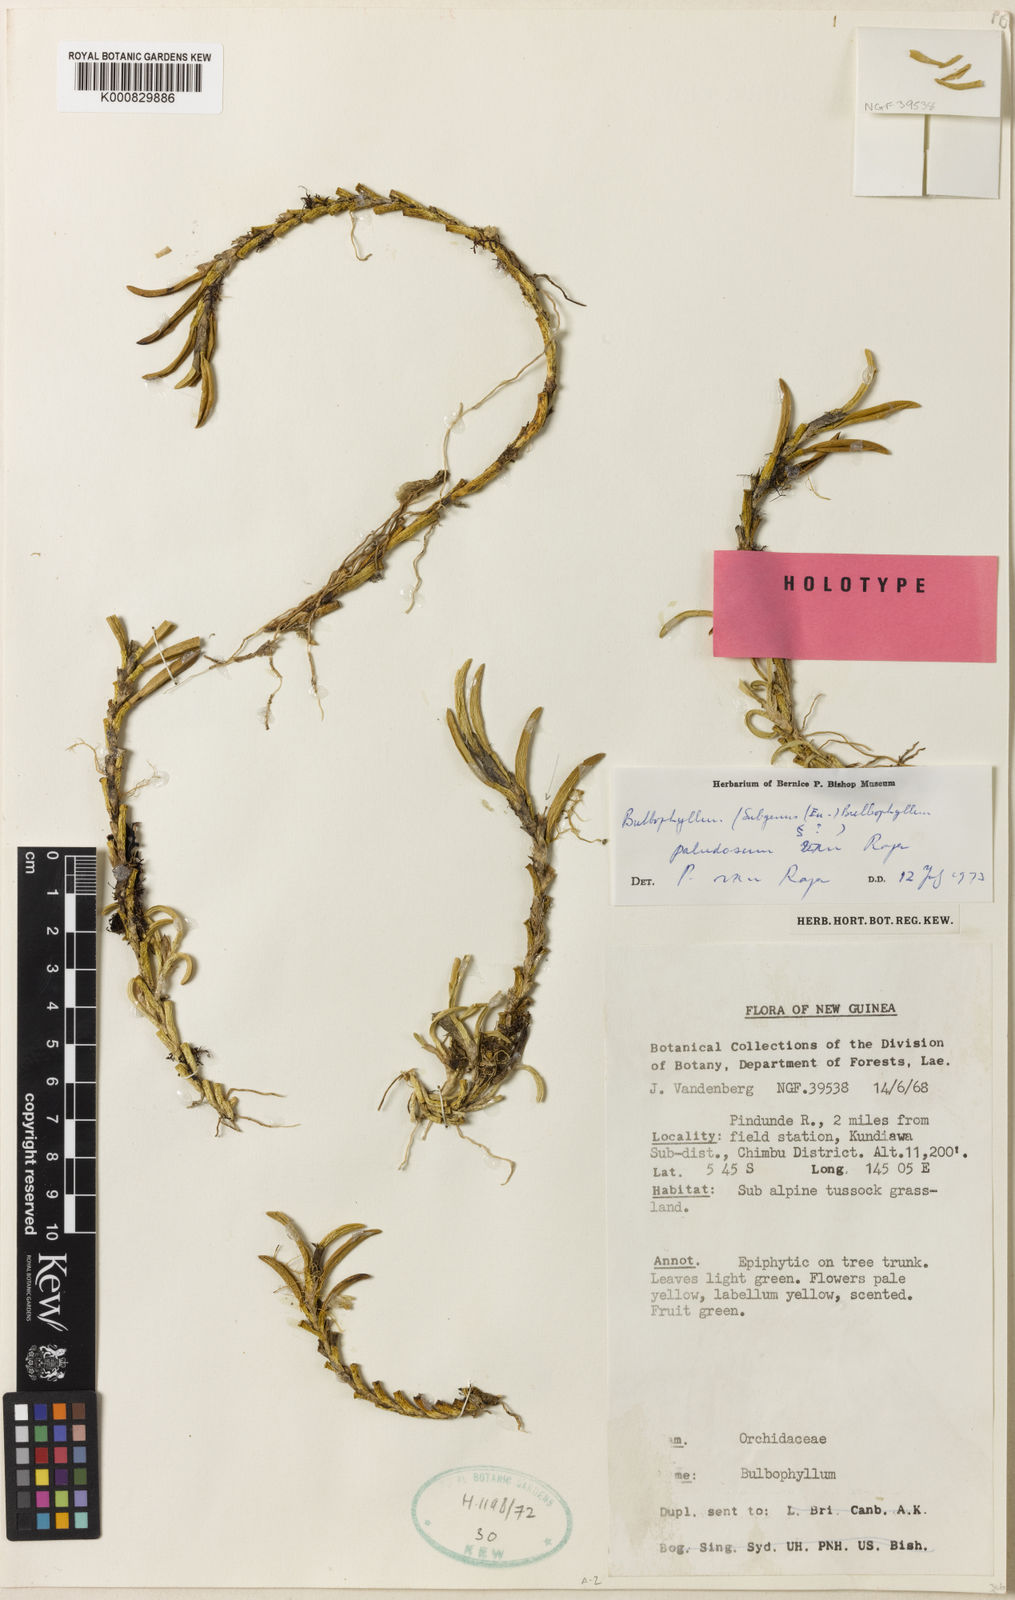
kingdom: Plantae
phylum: Tracheophyta
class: Liliopsida
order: Asparagales
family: Orchidaceae
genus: Bulbophyllum
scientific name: Bulbophyllum
